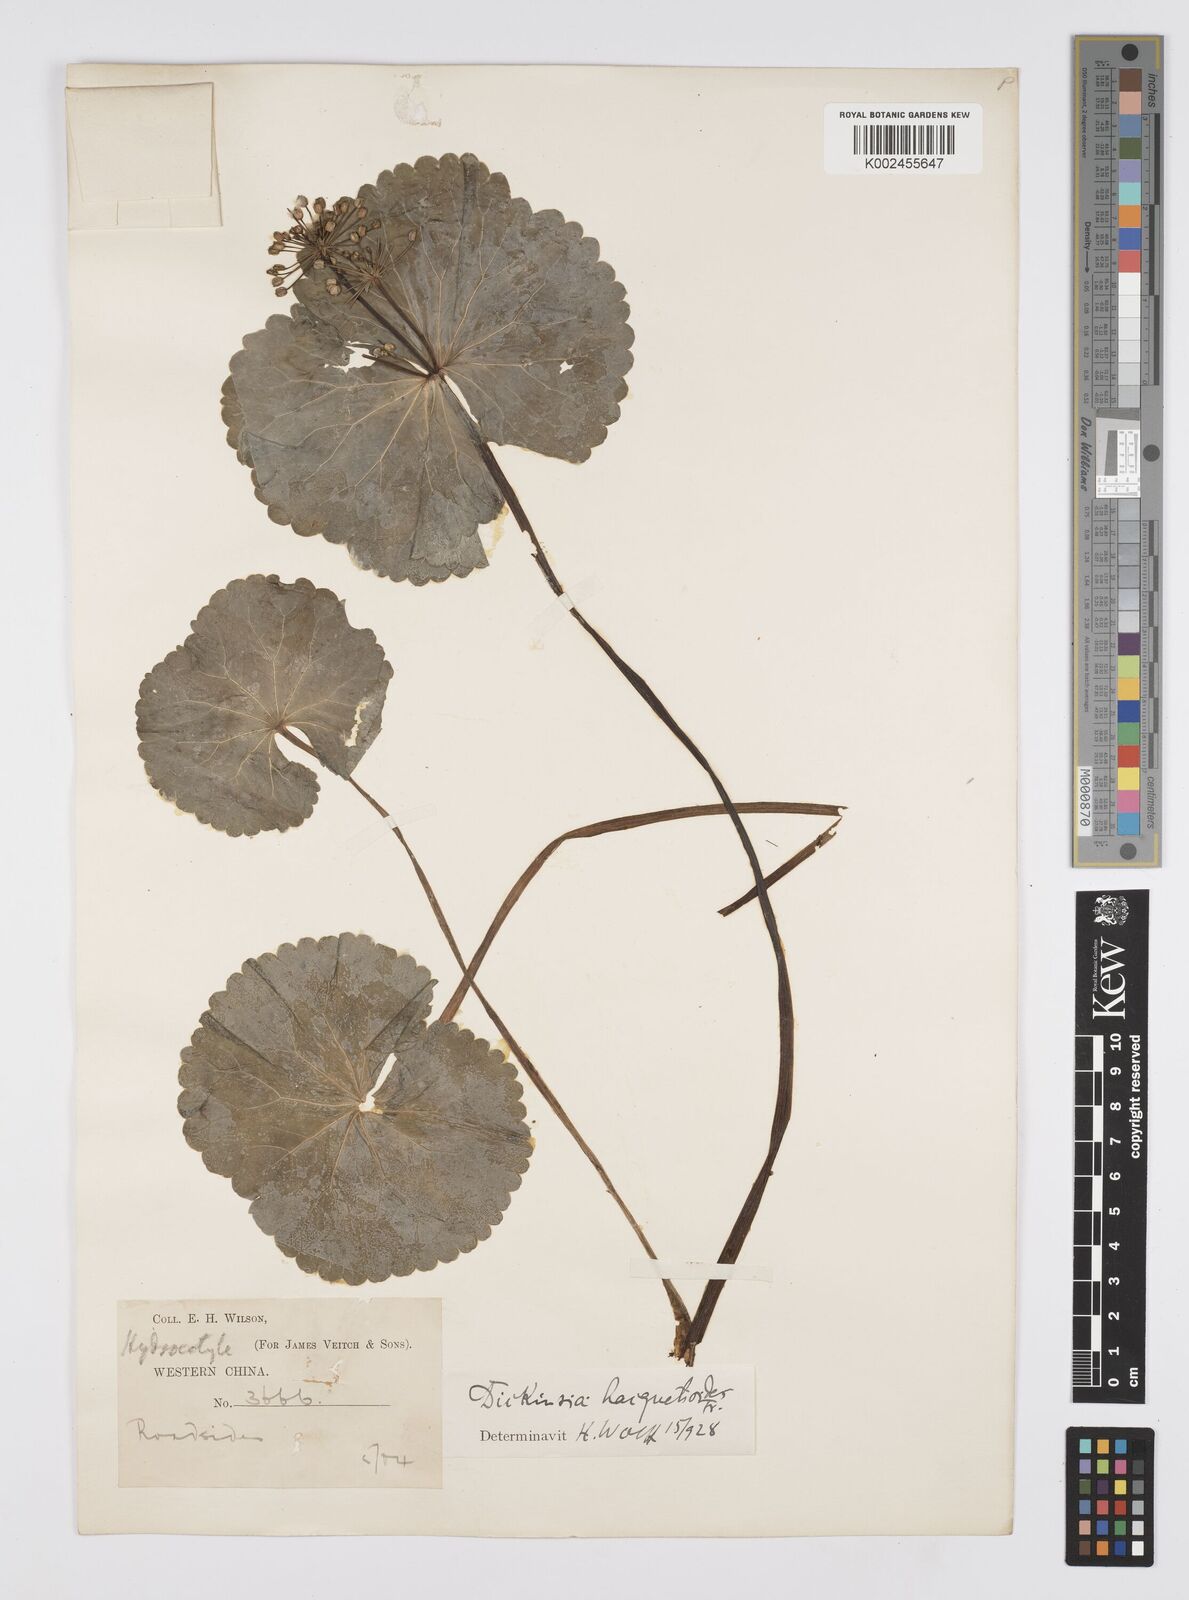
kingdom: Plantae
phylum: Tracheophyta
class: Magnoliopsida
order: Apiales
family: Apiaceae
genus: Dickinsia
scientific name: Dickinsia hydrocotyloides
